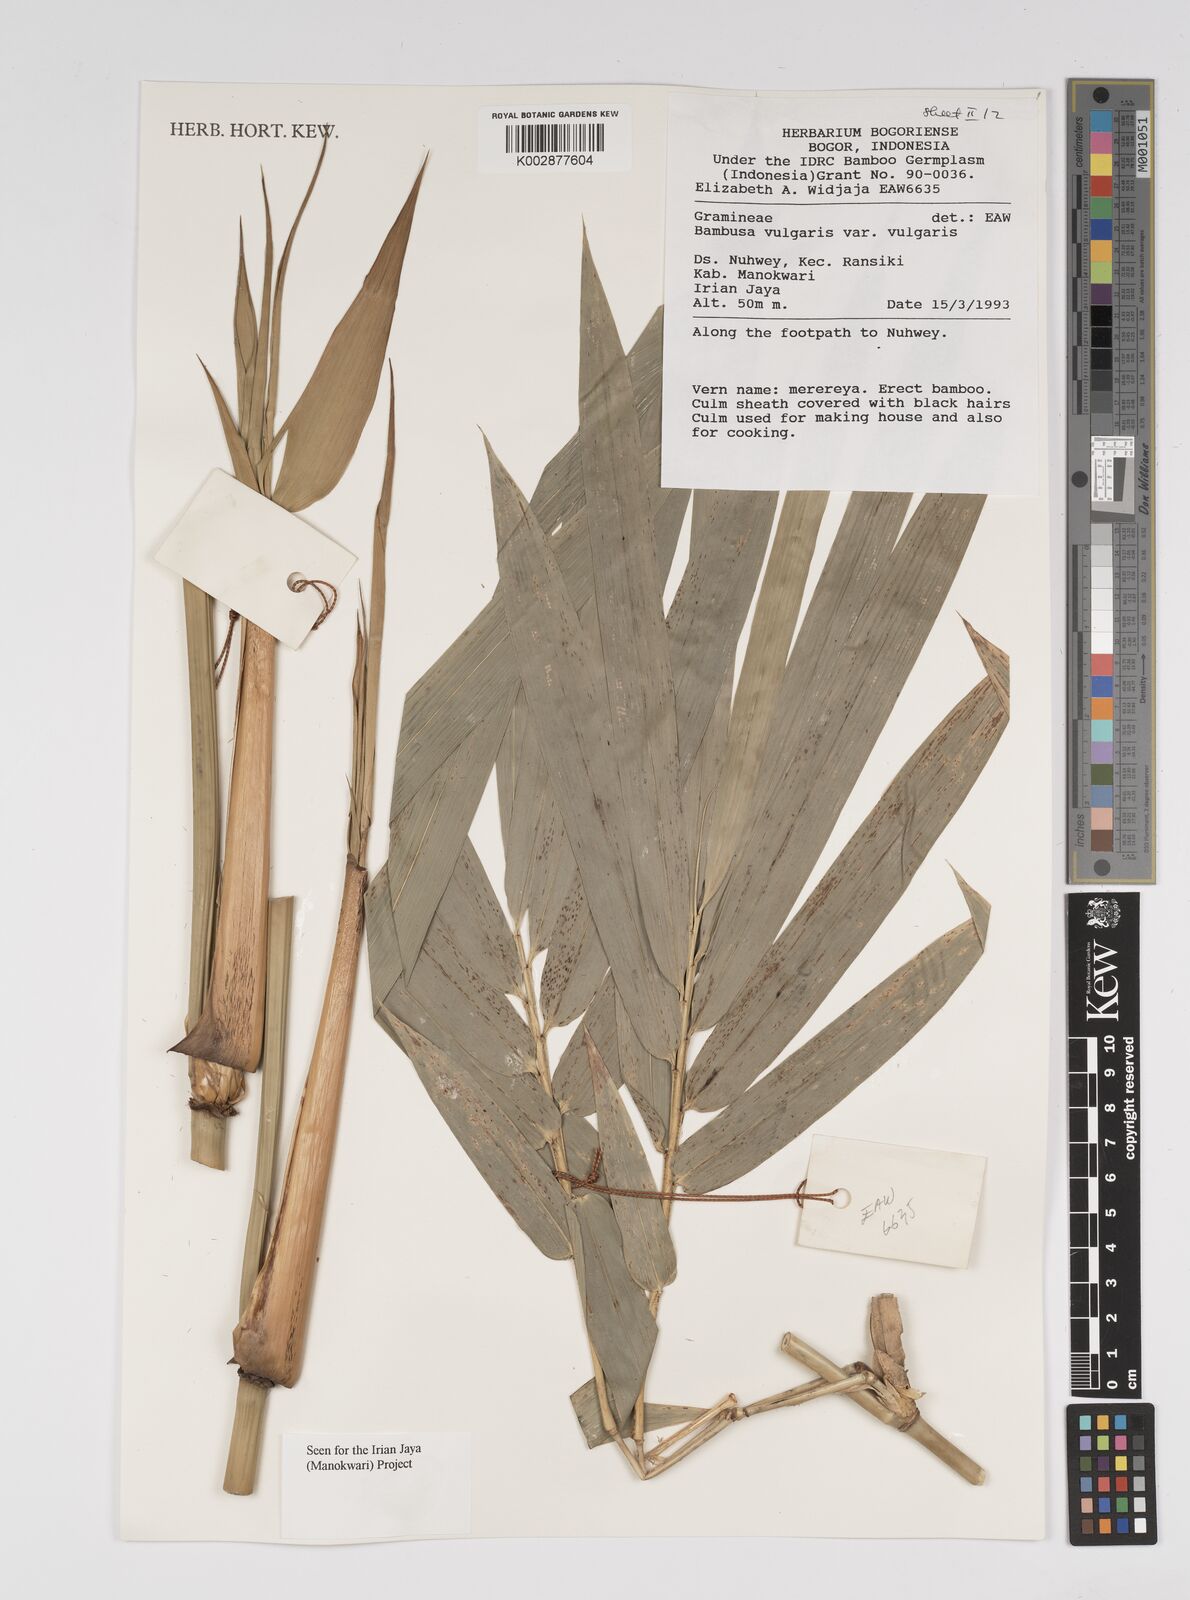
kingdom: Plantae
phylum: Tracheophyta
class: Liliopsida
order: Poales
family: Poaceae
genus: Bambusa
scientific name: Bambusa balcooa
